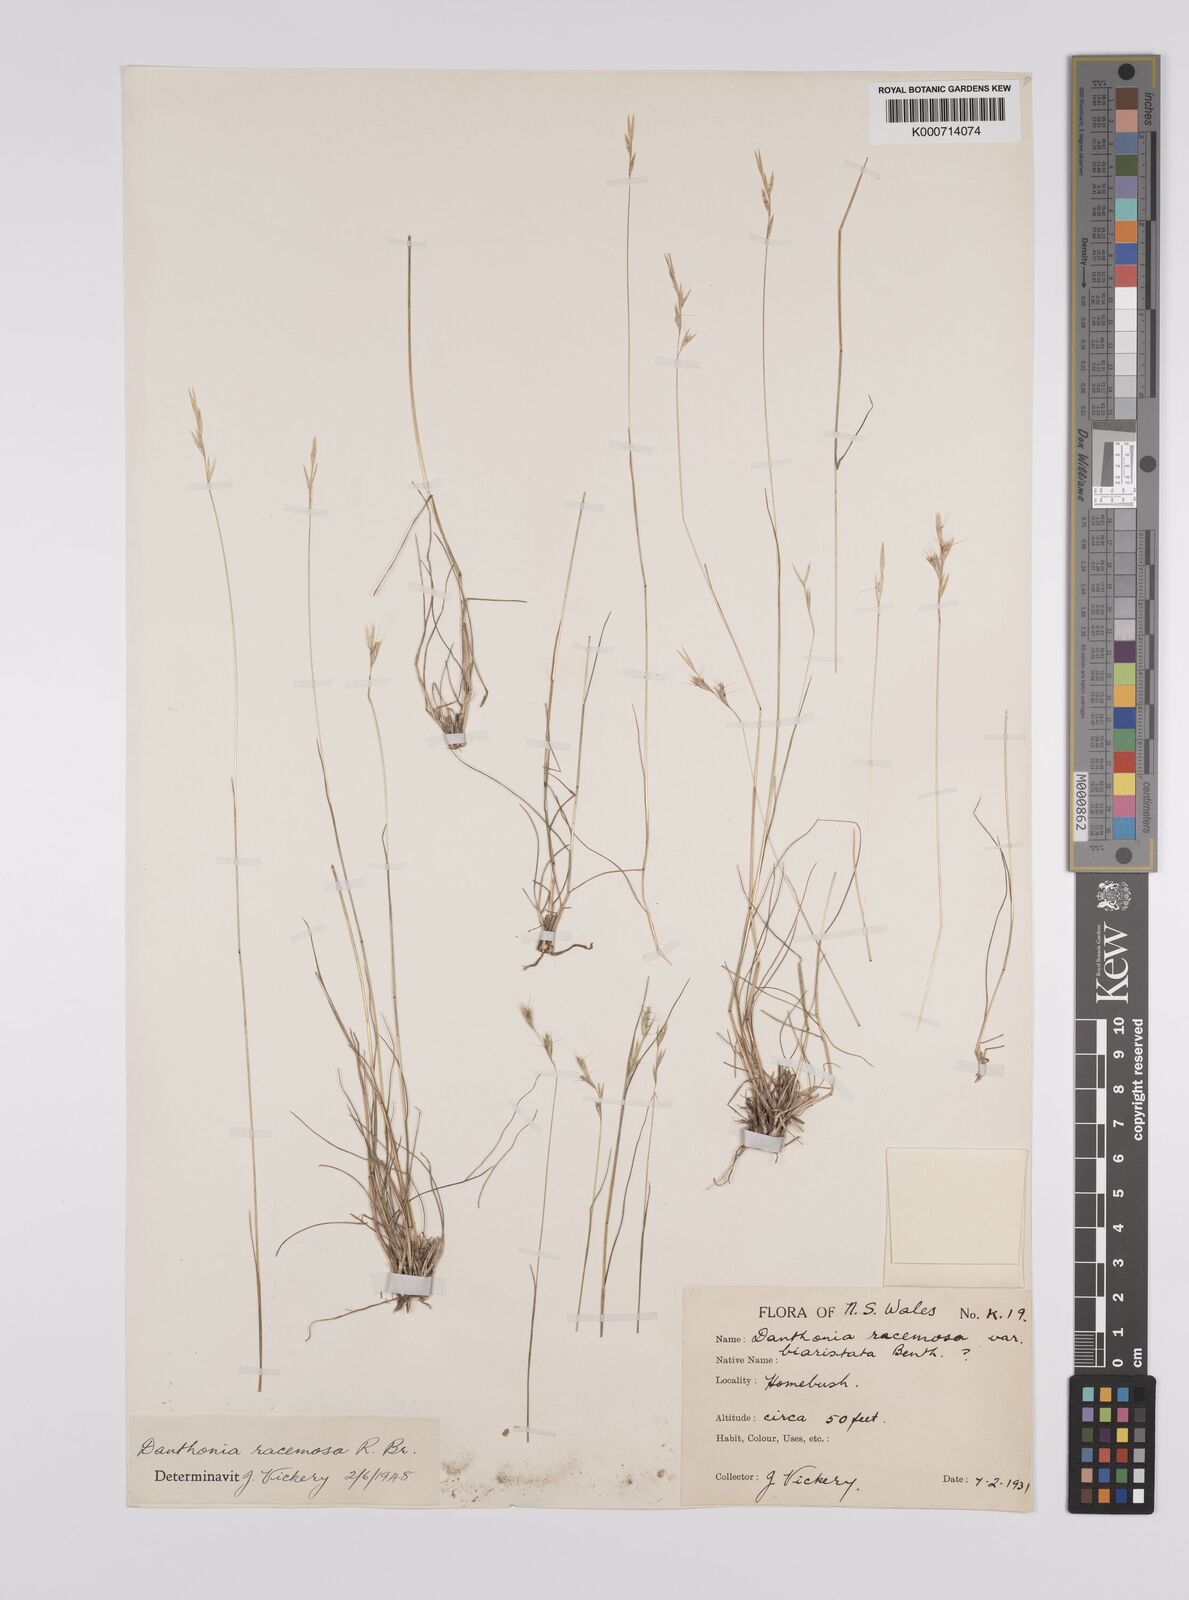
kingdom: Plantae
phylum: Tracheophyta
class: Liliopsida
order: Poales
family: Poaceae
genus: Rytidosperma
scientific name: Rytidosperma racemosum
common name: Wallaby-grass
